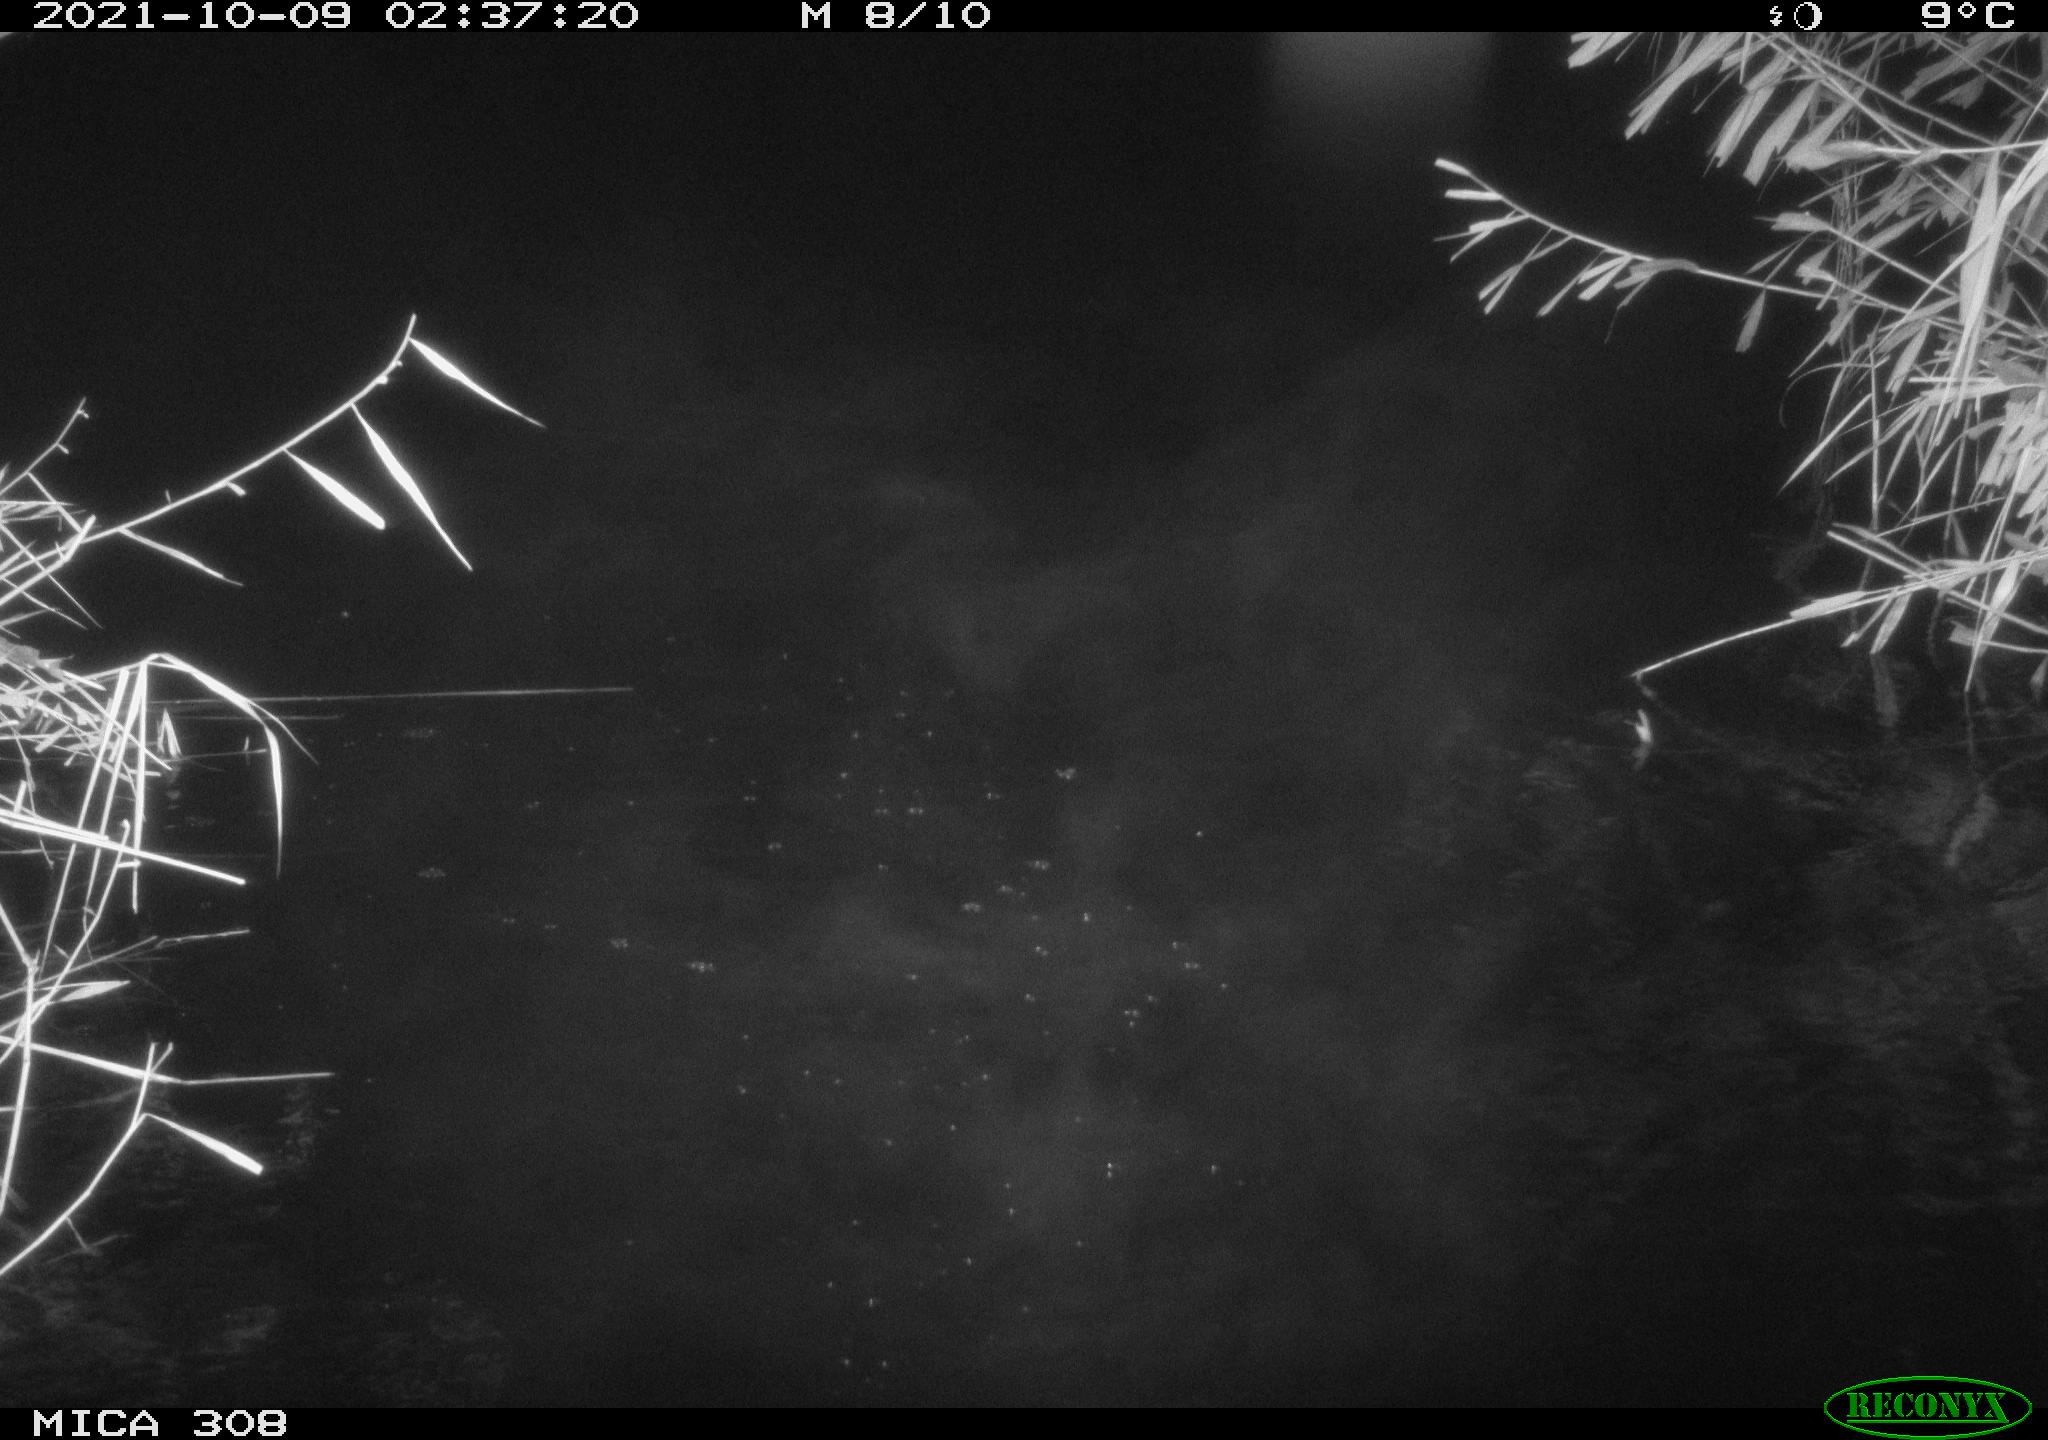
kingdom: Animalia
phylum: Chordata
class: Mammalia
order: Rodentia
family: Cricetidae
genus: Ondatra
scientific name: Ondatra zibethicus
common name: Muskrat
